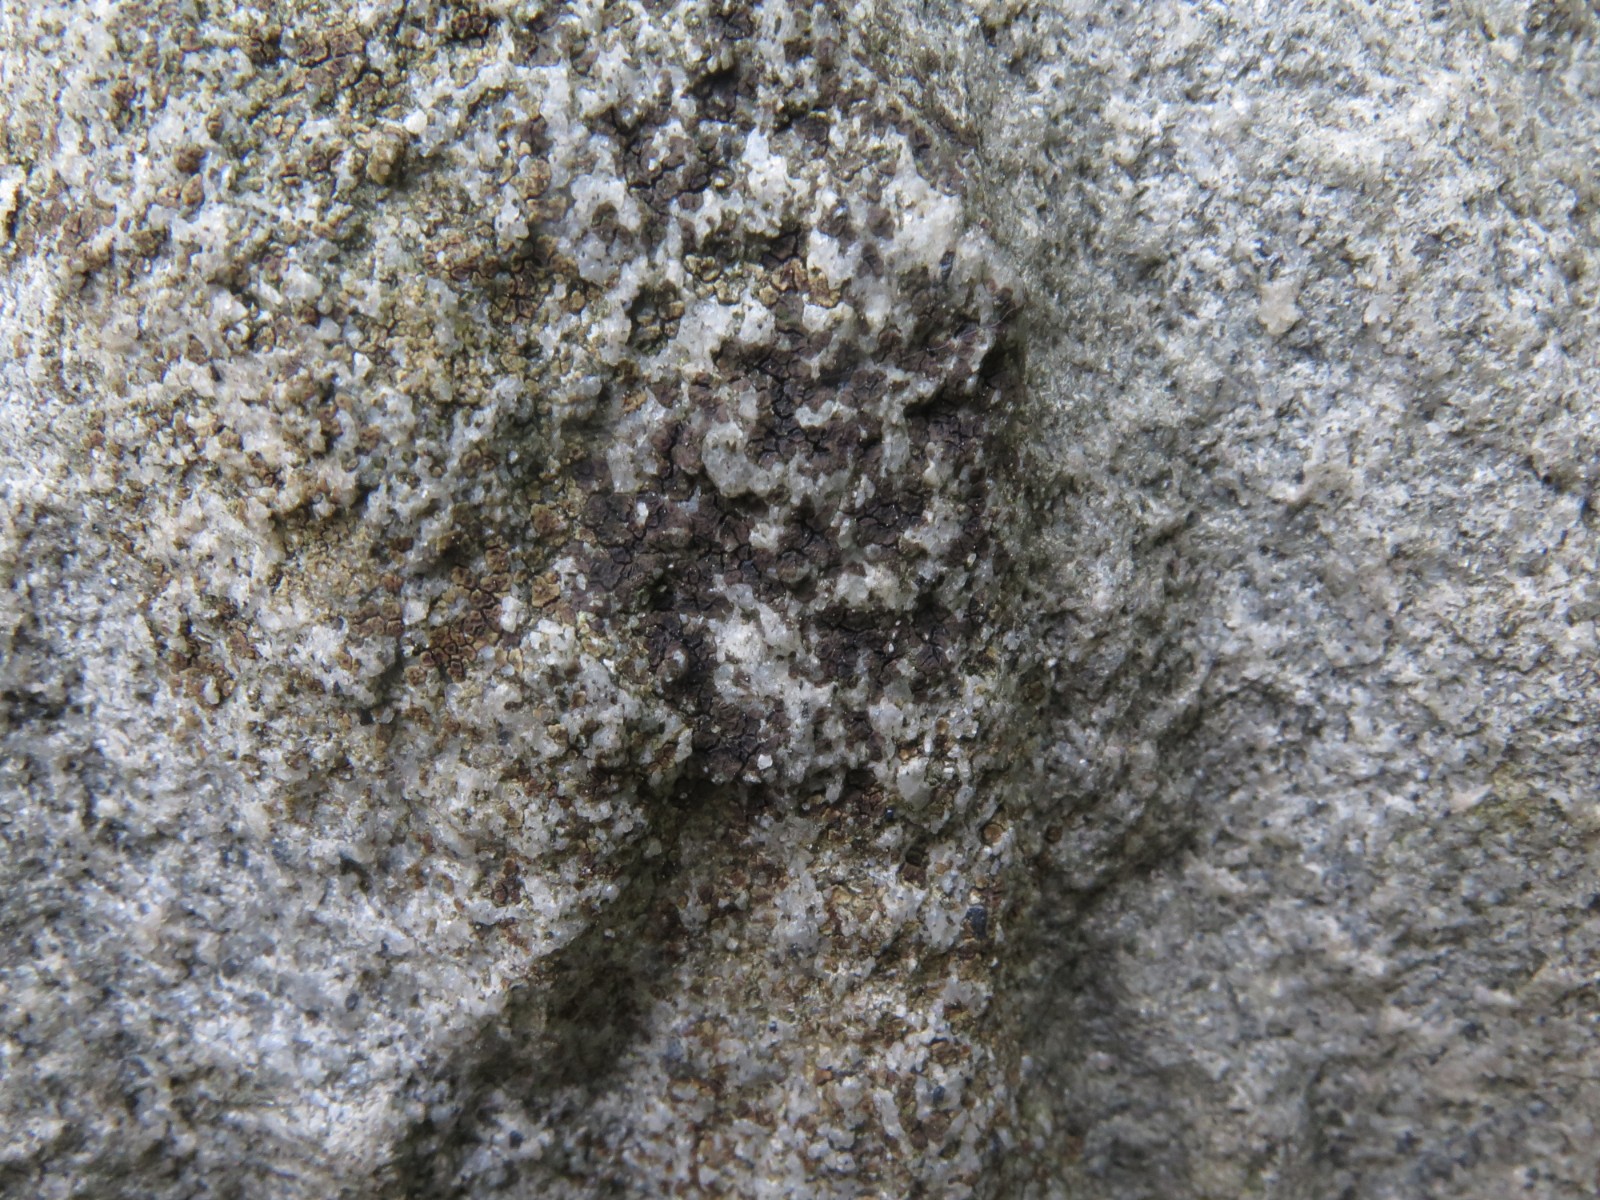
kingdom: Fungi
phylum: Ascomycota
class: Lecanoromycetes
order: Acarosporales
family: Acarosporaceae
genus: Acarospora
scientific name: Acarospora fuscata
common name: brun småsporelav
